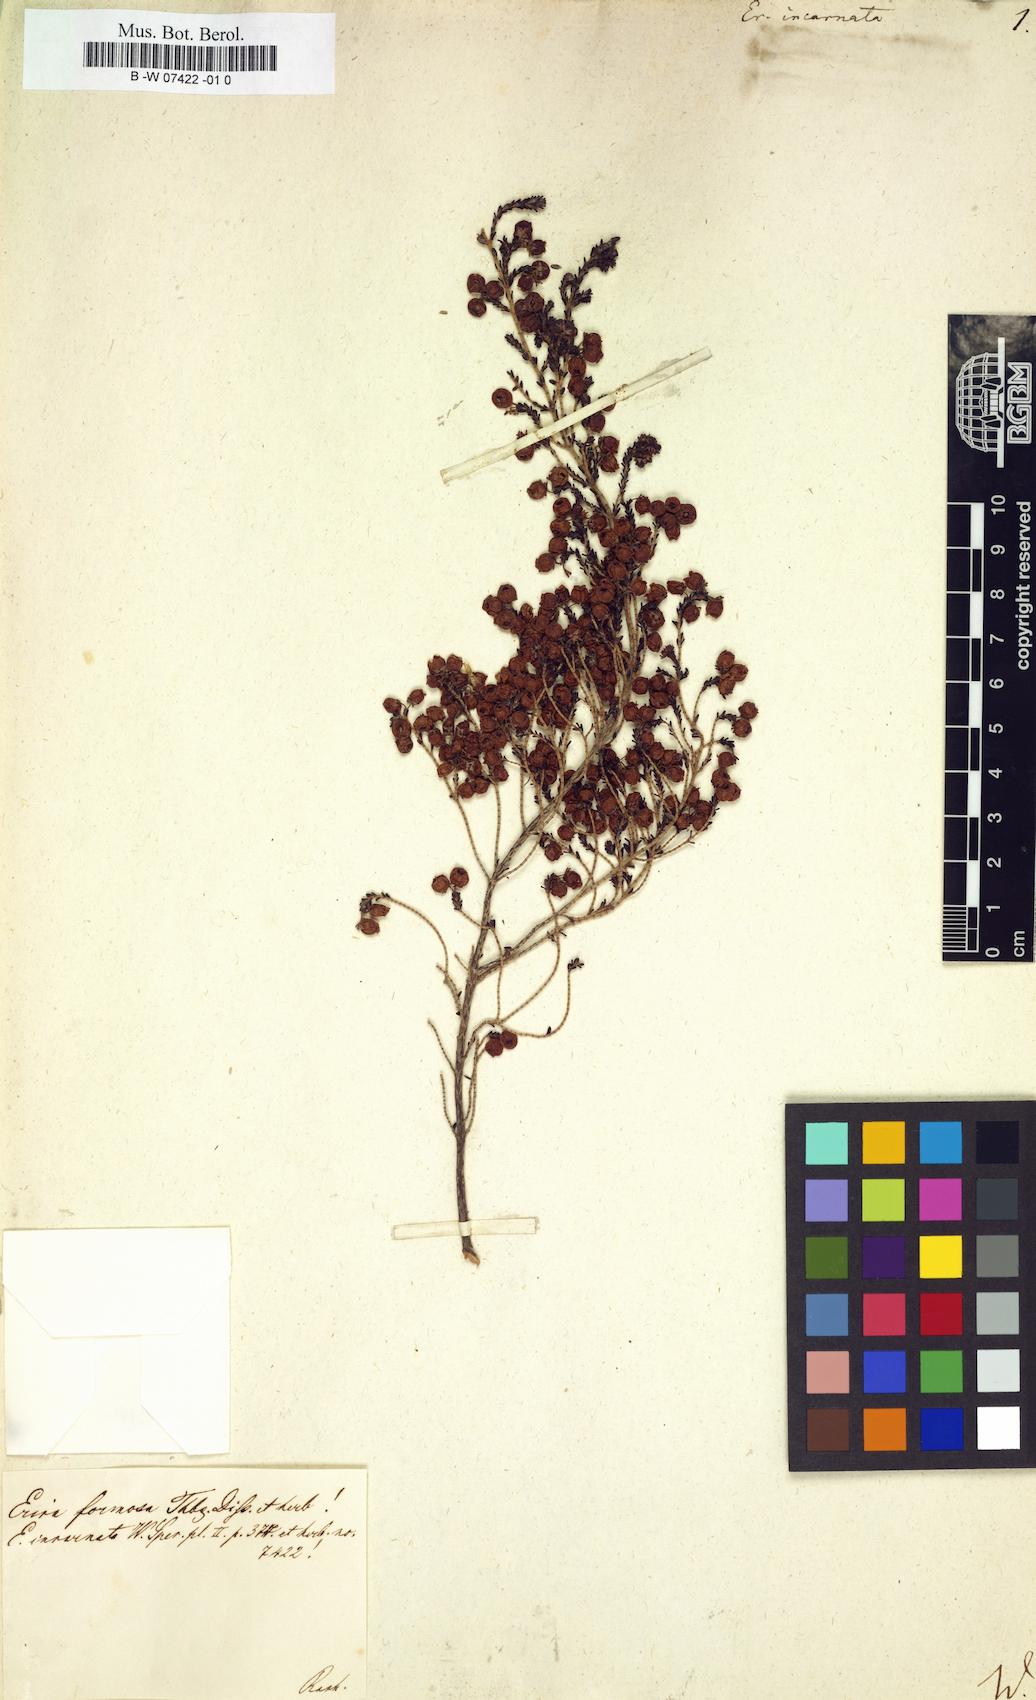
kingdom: Plantae
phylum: Tracheophyta
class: Magnoliopsida
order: Ericales
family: Ericaceae
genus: Erica
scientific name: Erica incarnata
